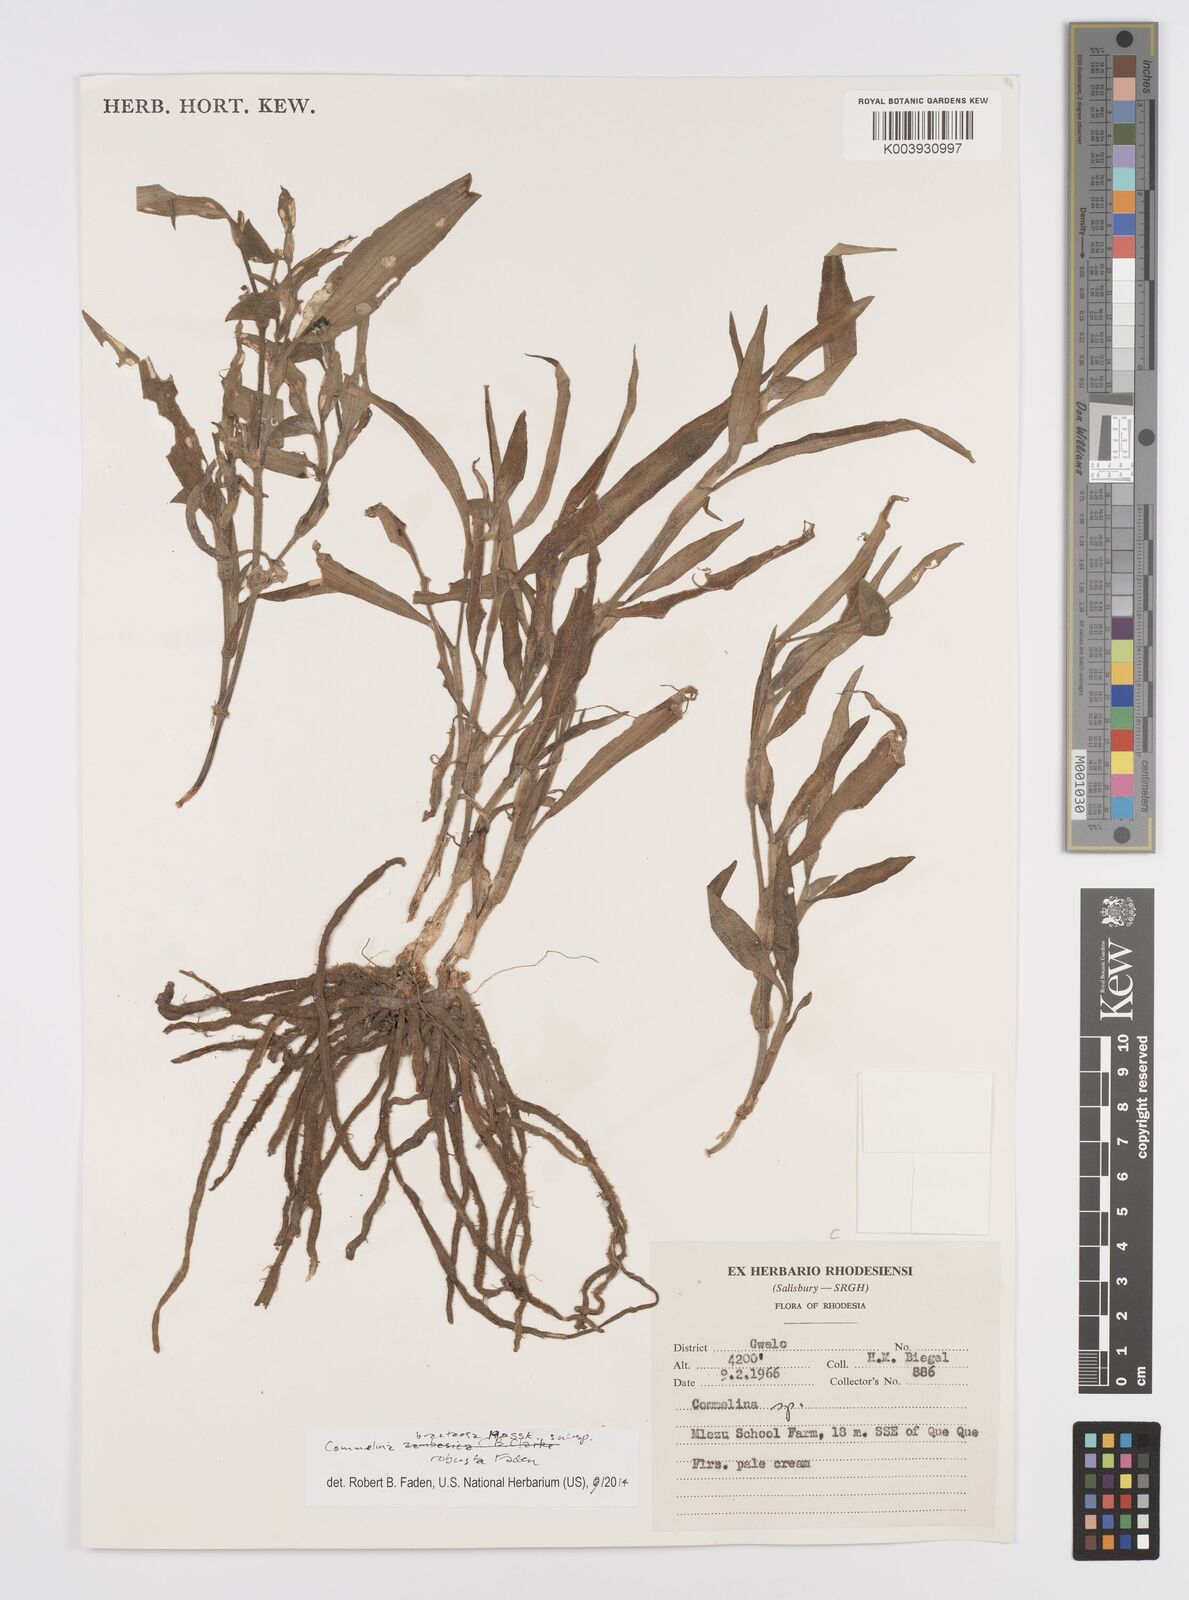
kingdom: Plantae
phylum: Tracheophyta
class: Liliopsida
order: Commelinales
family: Commelinaceae
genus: Commelina
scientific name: Commelina bracteosa
